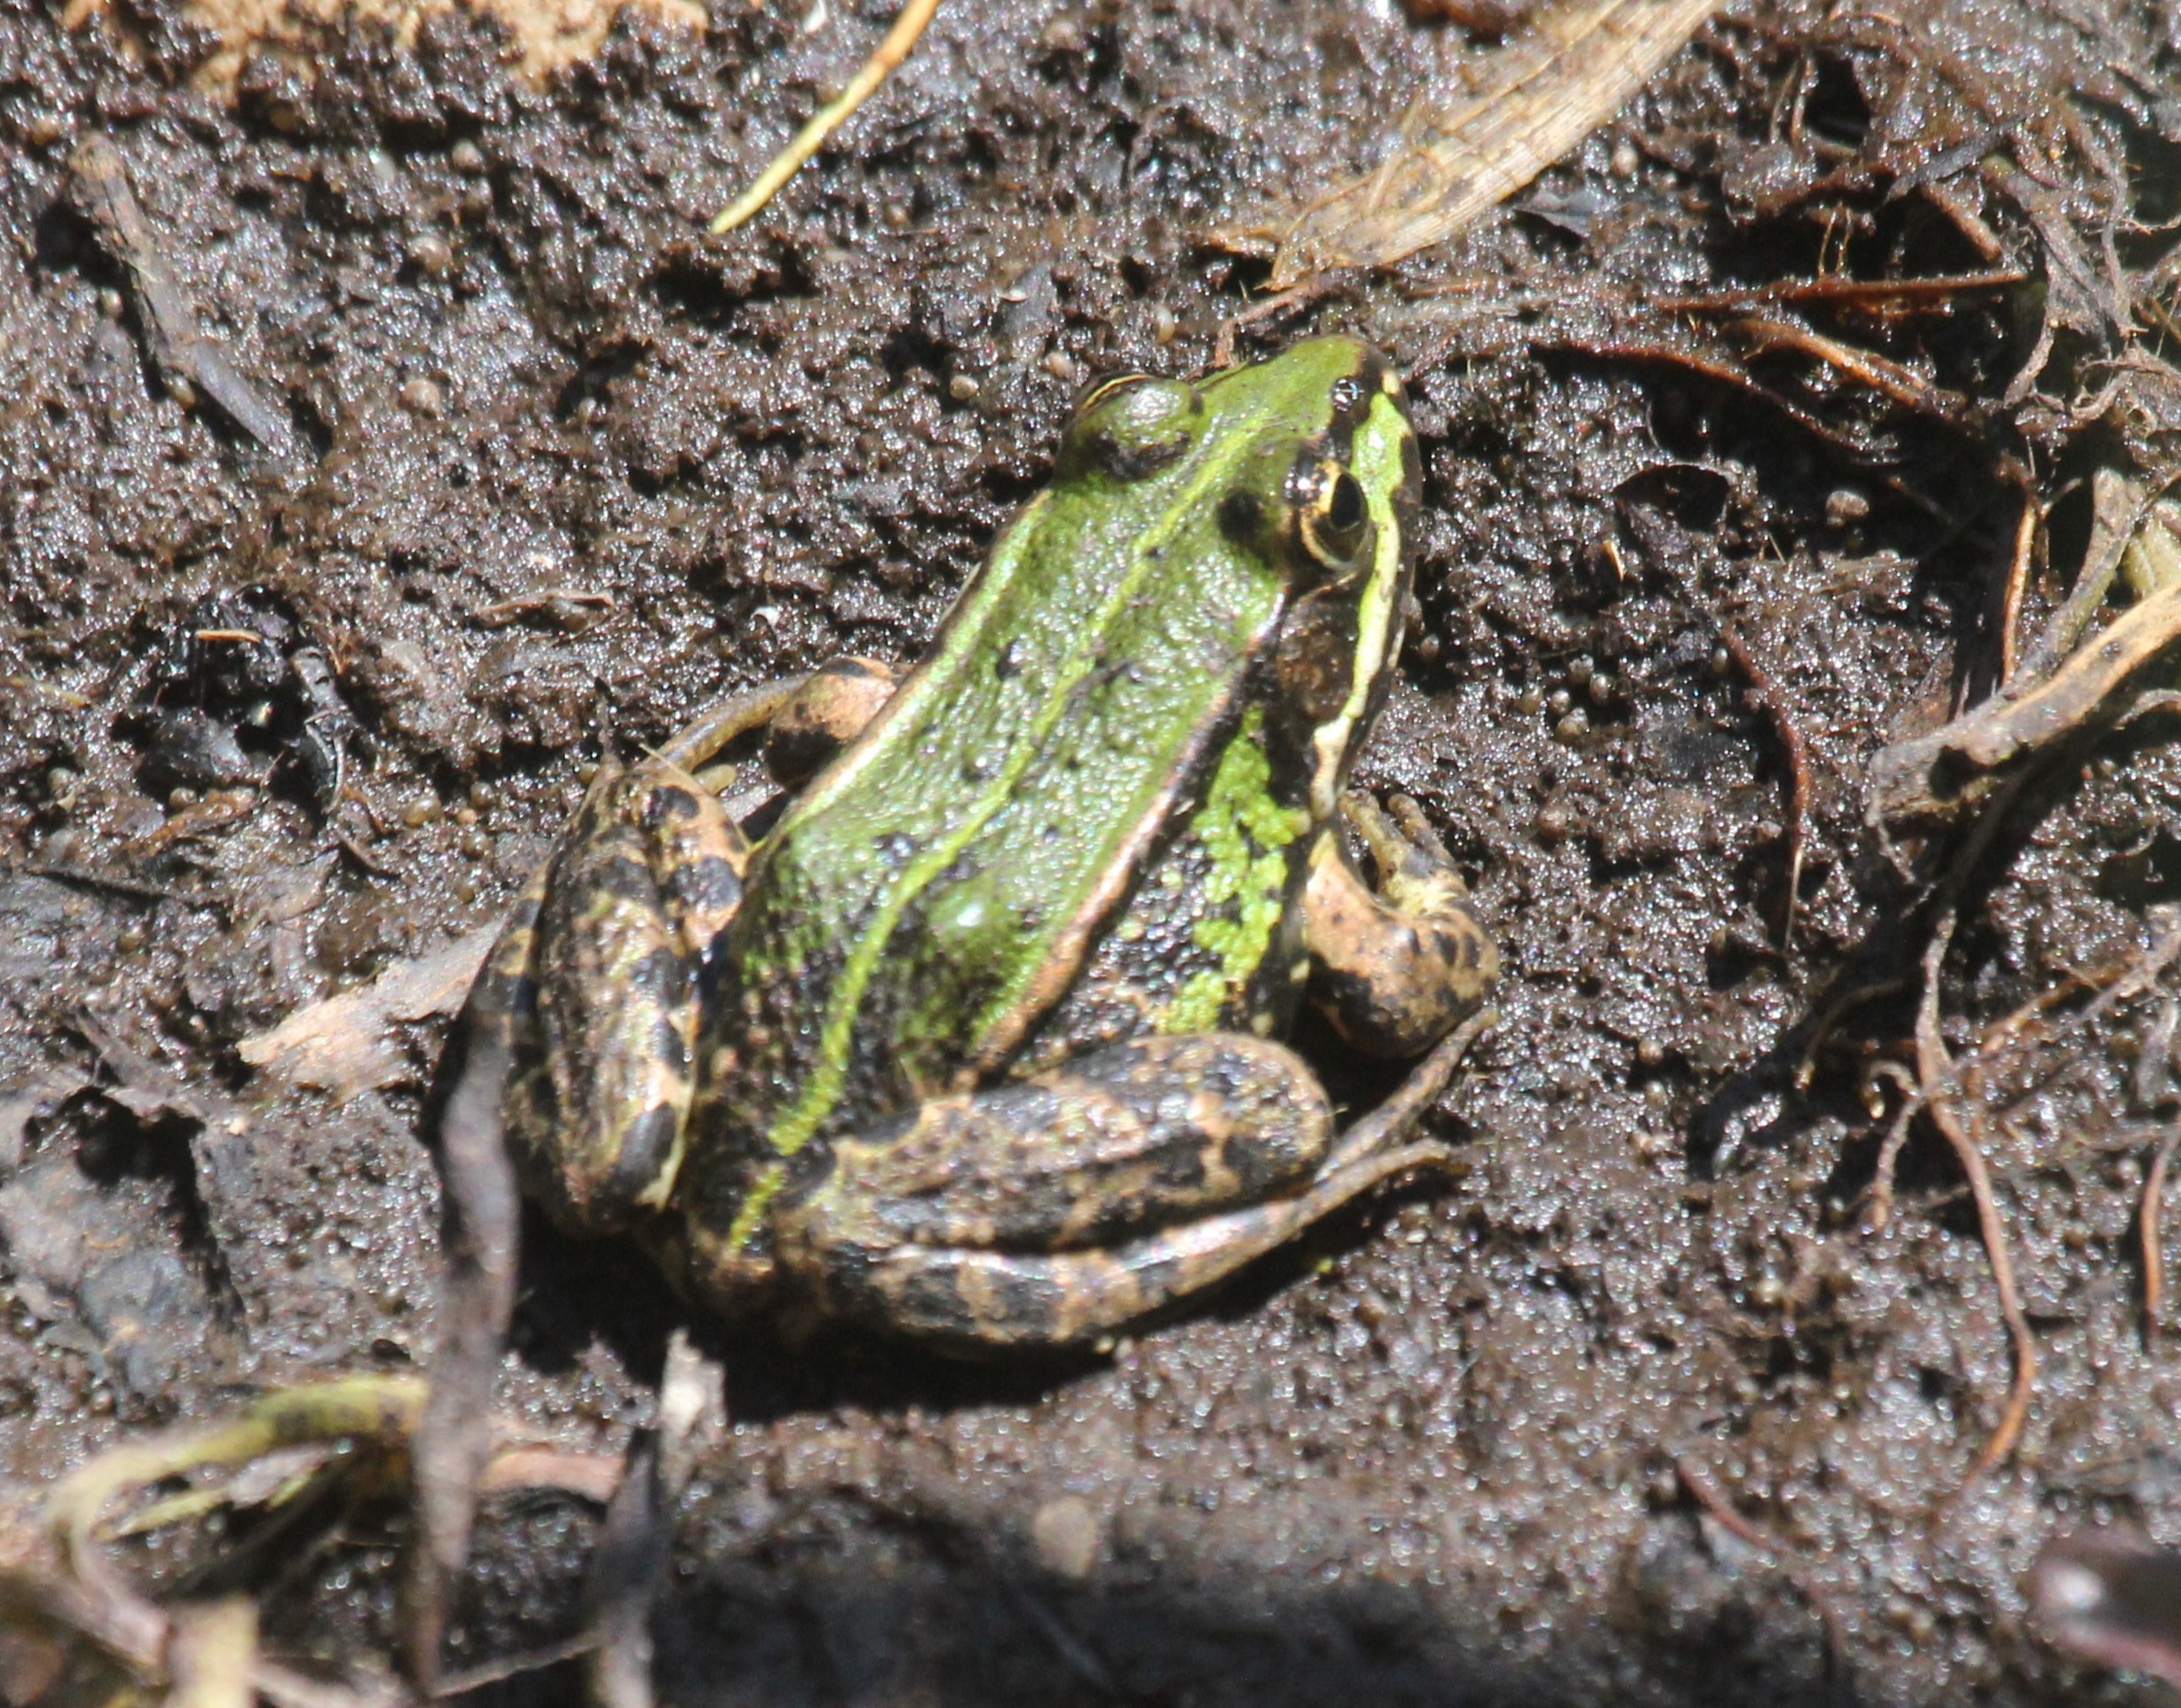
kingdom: Animalia
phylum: Chordata
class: Amphibia
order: Anura
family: Ranidae
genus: Pelophylax
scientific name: Pelophylax lessonae
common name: Grøn frø
